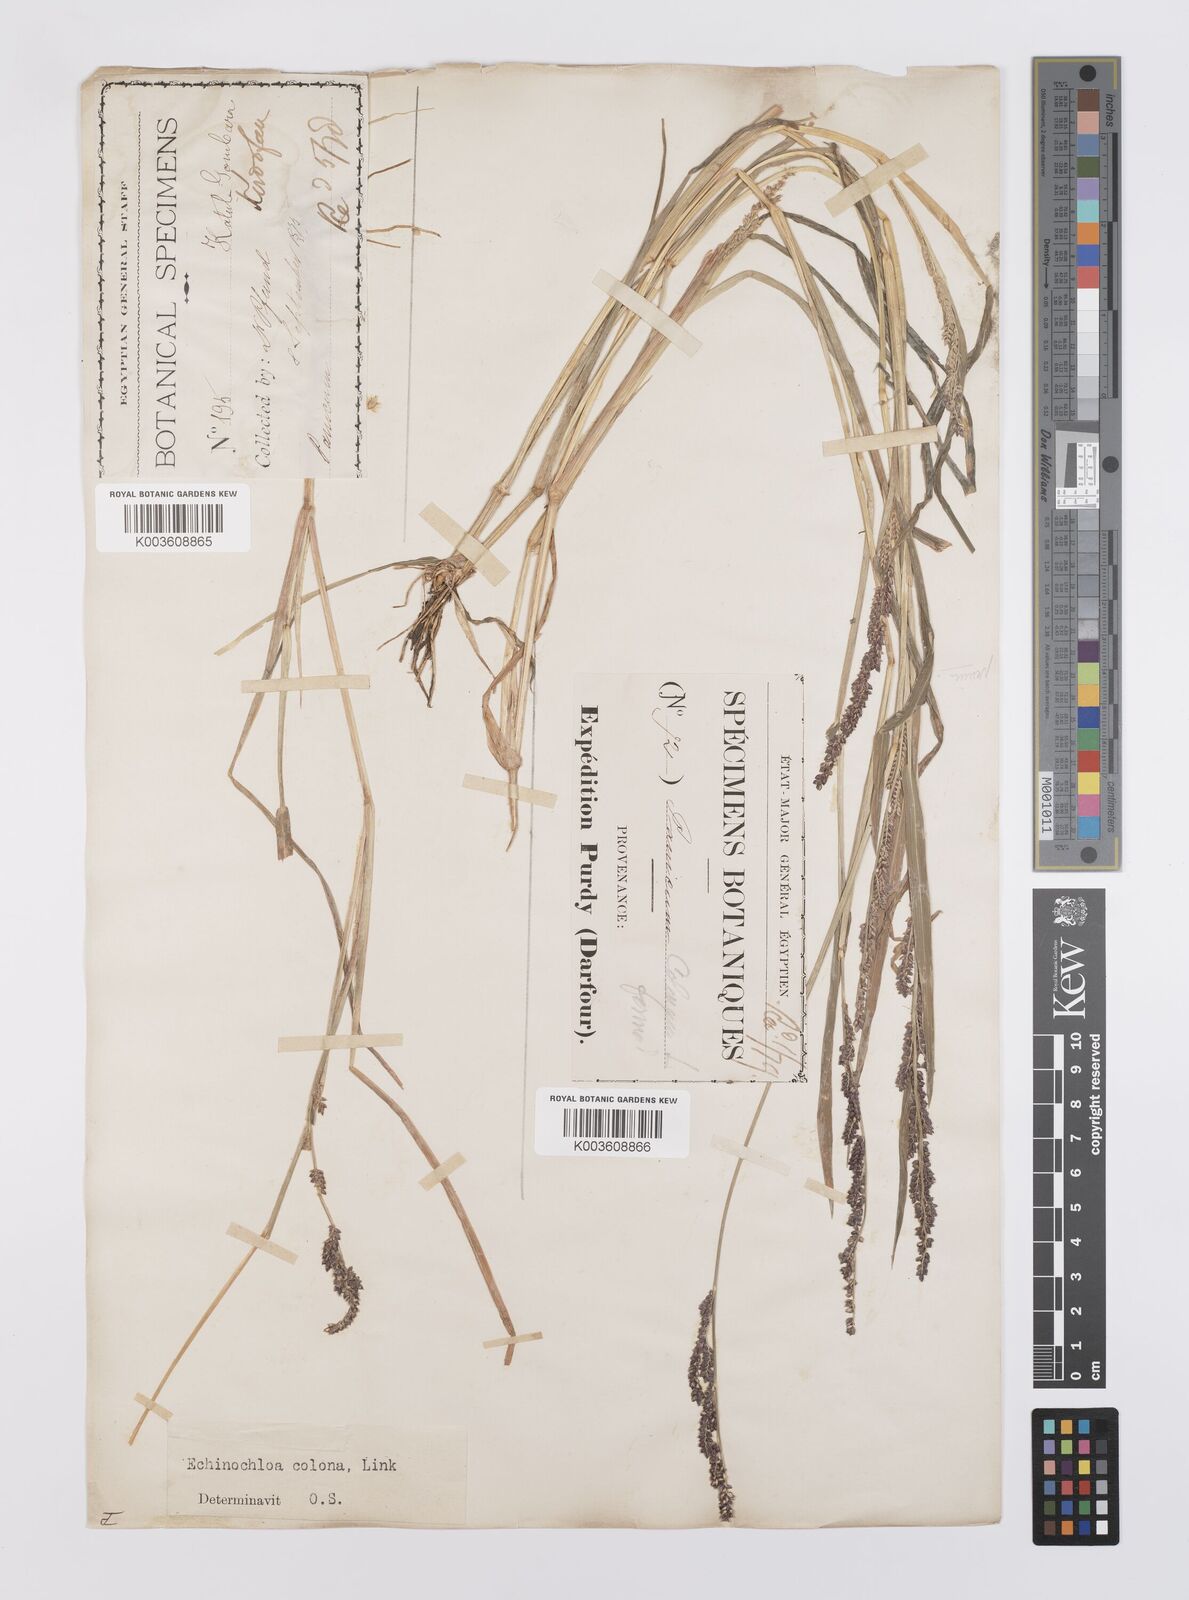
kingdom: Plantae
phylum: Tracheophyta
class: Liliopsida
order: Poales
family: Poaceae
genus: Echinochloa
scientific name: Echinochloa colonum
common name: Jungle rice
